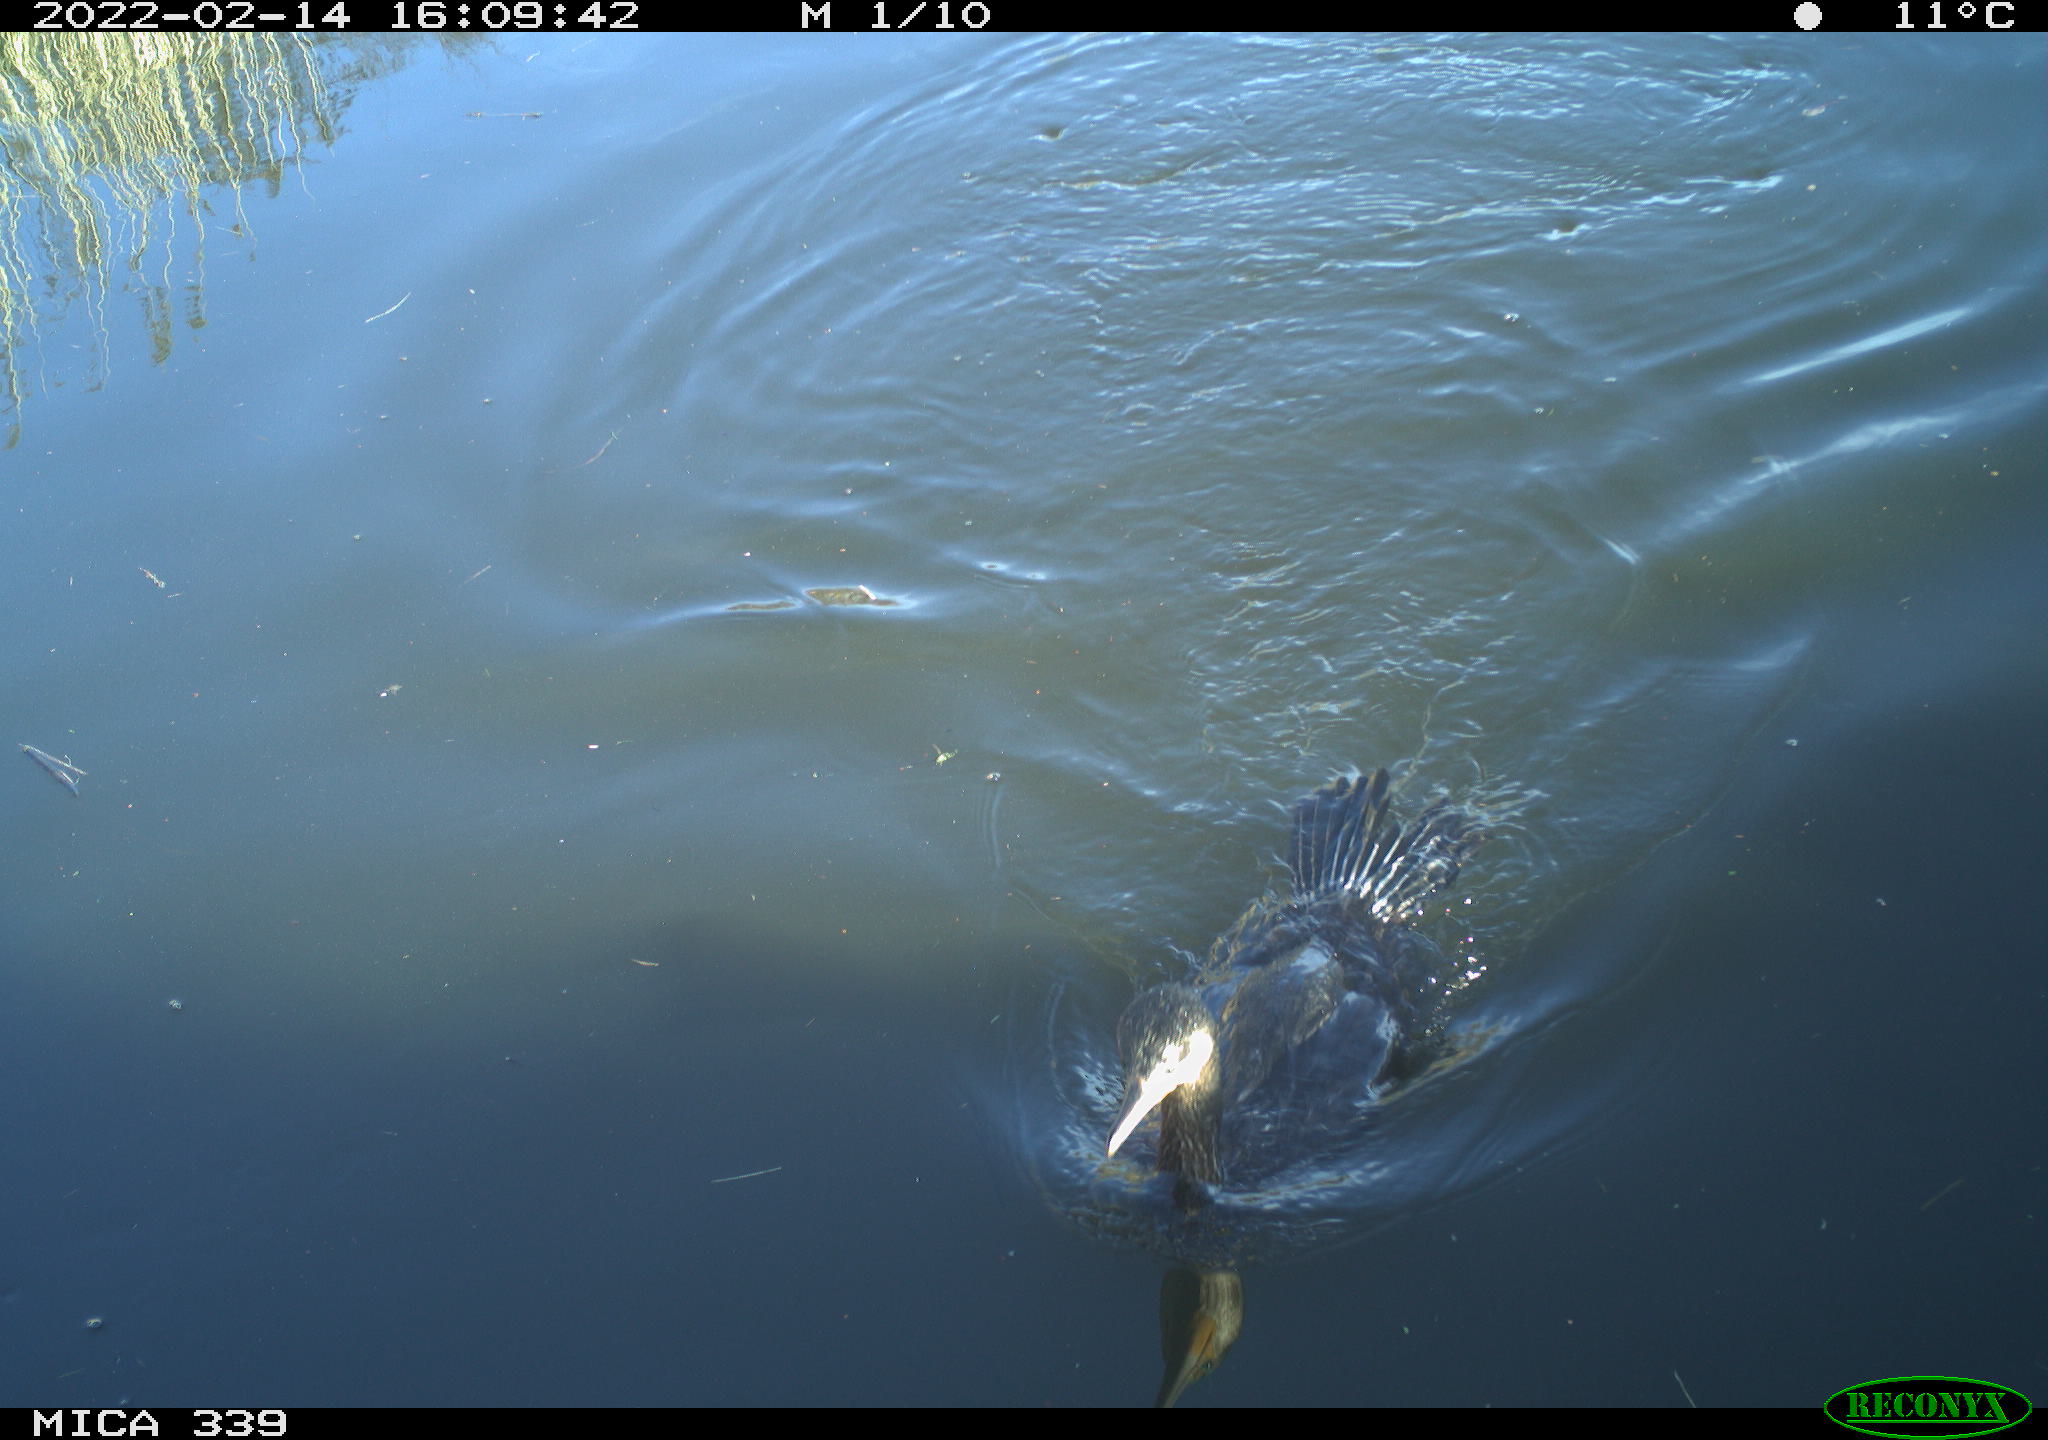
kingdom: Animalia
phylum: Chordata
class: Aves
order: Suliformes
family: Phalacrocoracidae
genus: Phalacrocorax
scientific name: Phalacrocorax carbo
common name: Great cormorant
